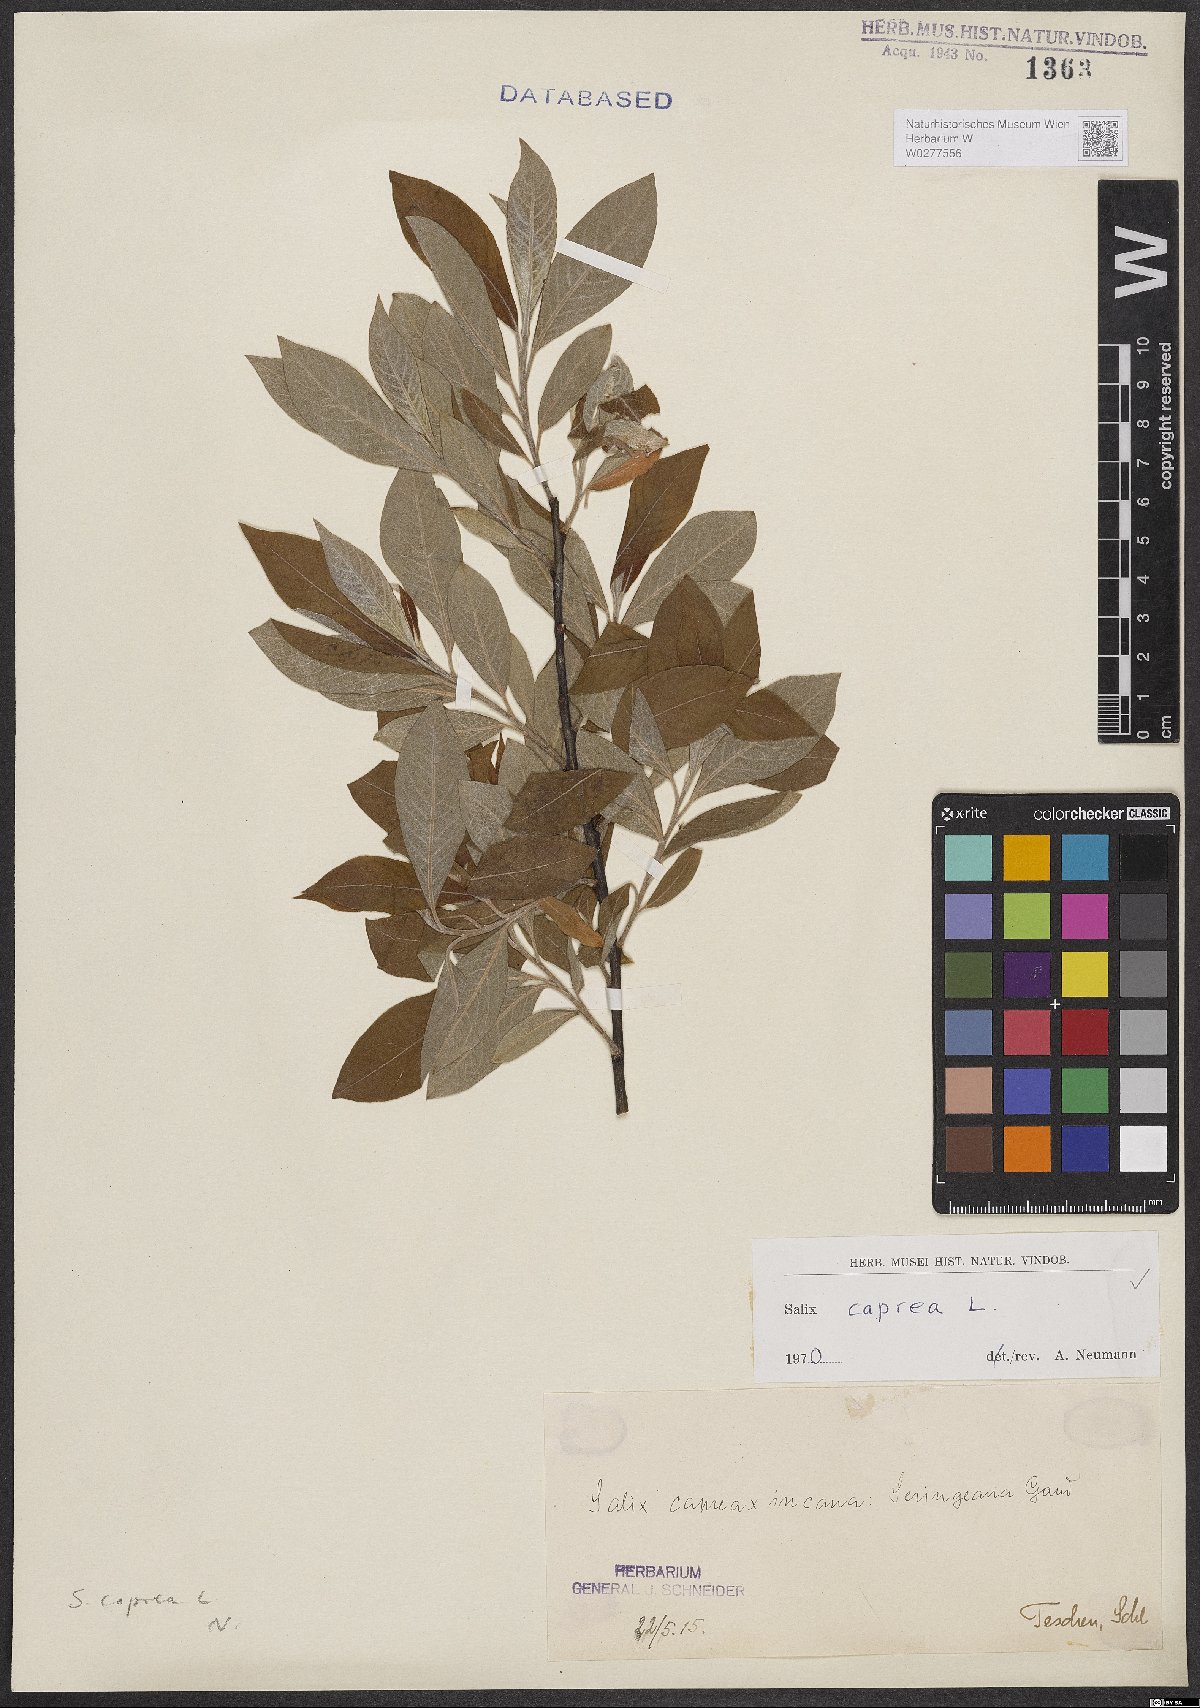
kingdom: Plantae
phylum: Tracheophyta
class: Magnoliopsida
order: Malpighiales
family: Salicaceae
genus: Salix
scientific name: Salix caprea
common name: Goat willow
